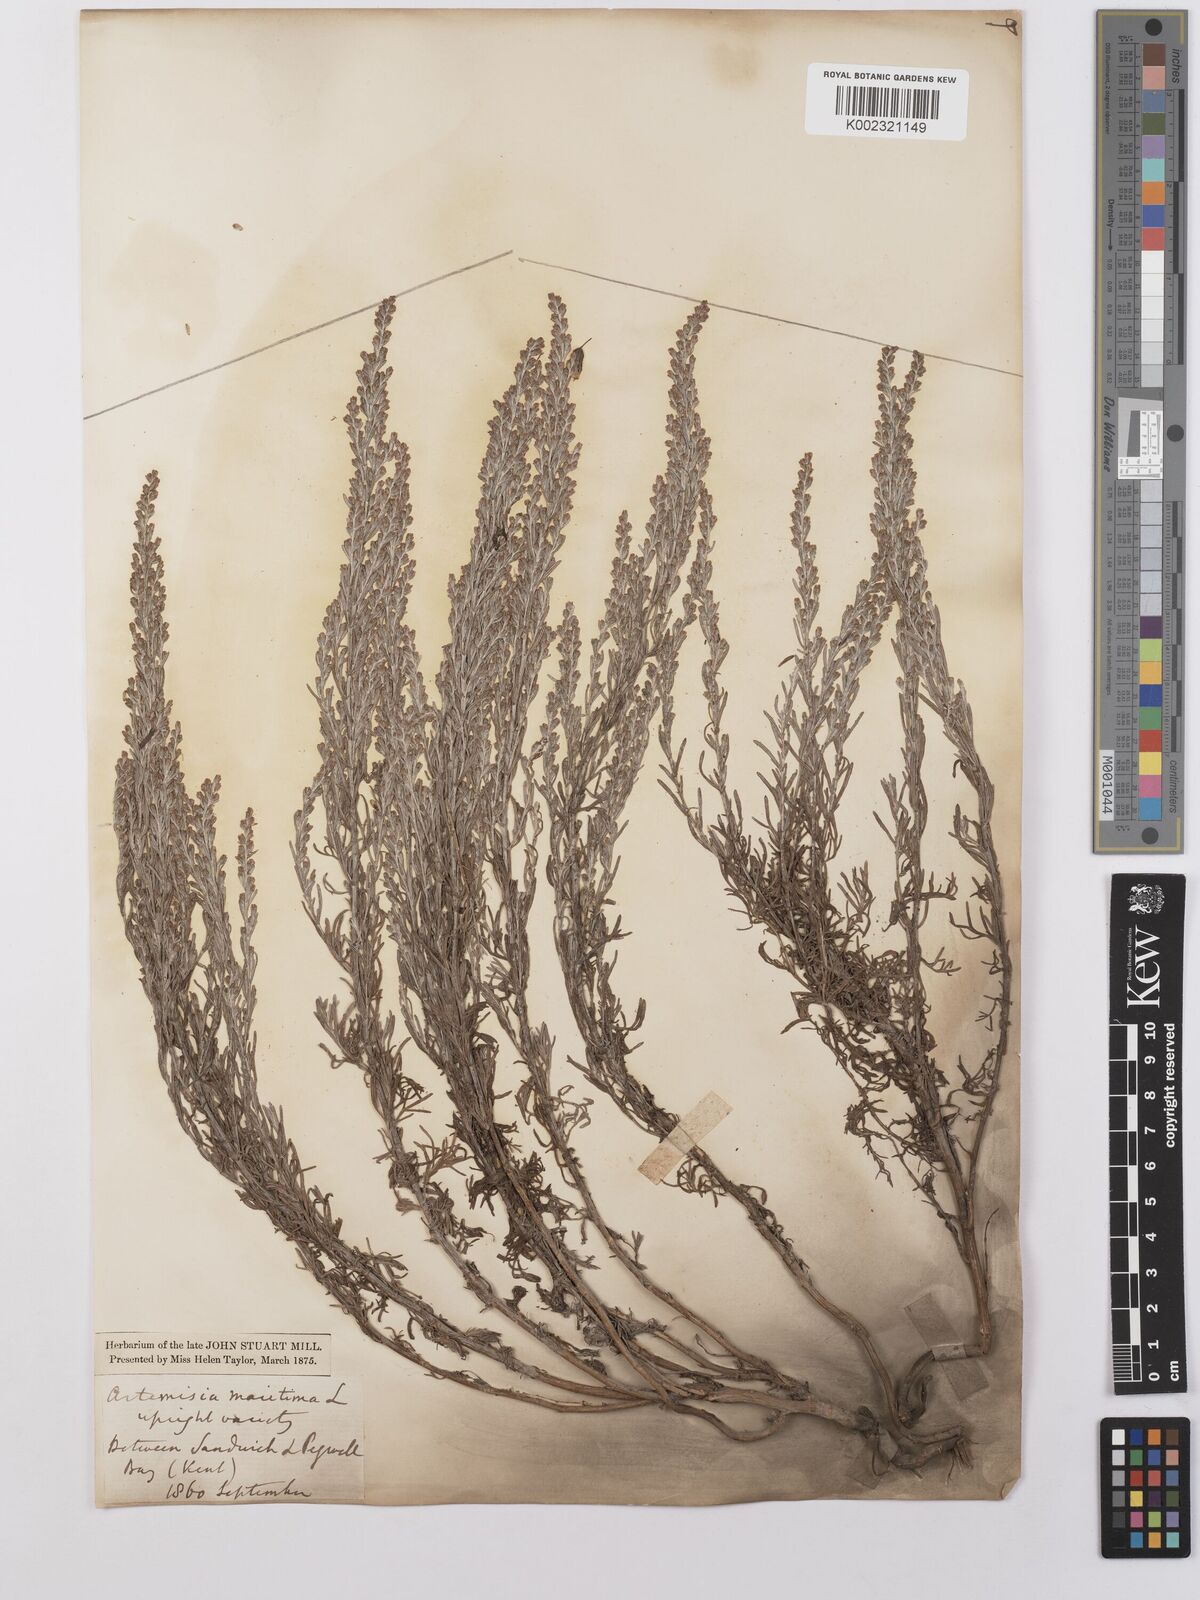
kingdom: Plantae
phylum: Tracheophyta
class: Magnoliopsida
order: Asterales
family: Asteraceae
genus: Artemisia
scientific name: Artemisia maritima
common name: Wormseed
